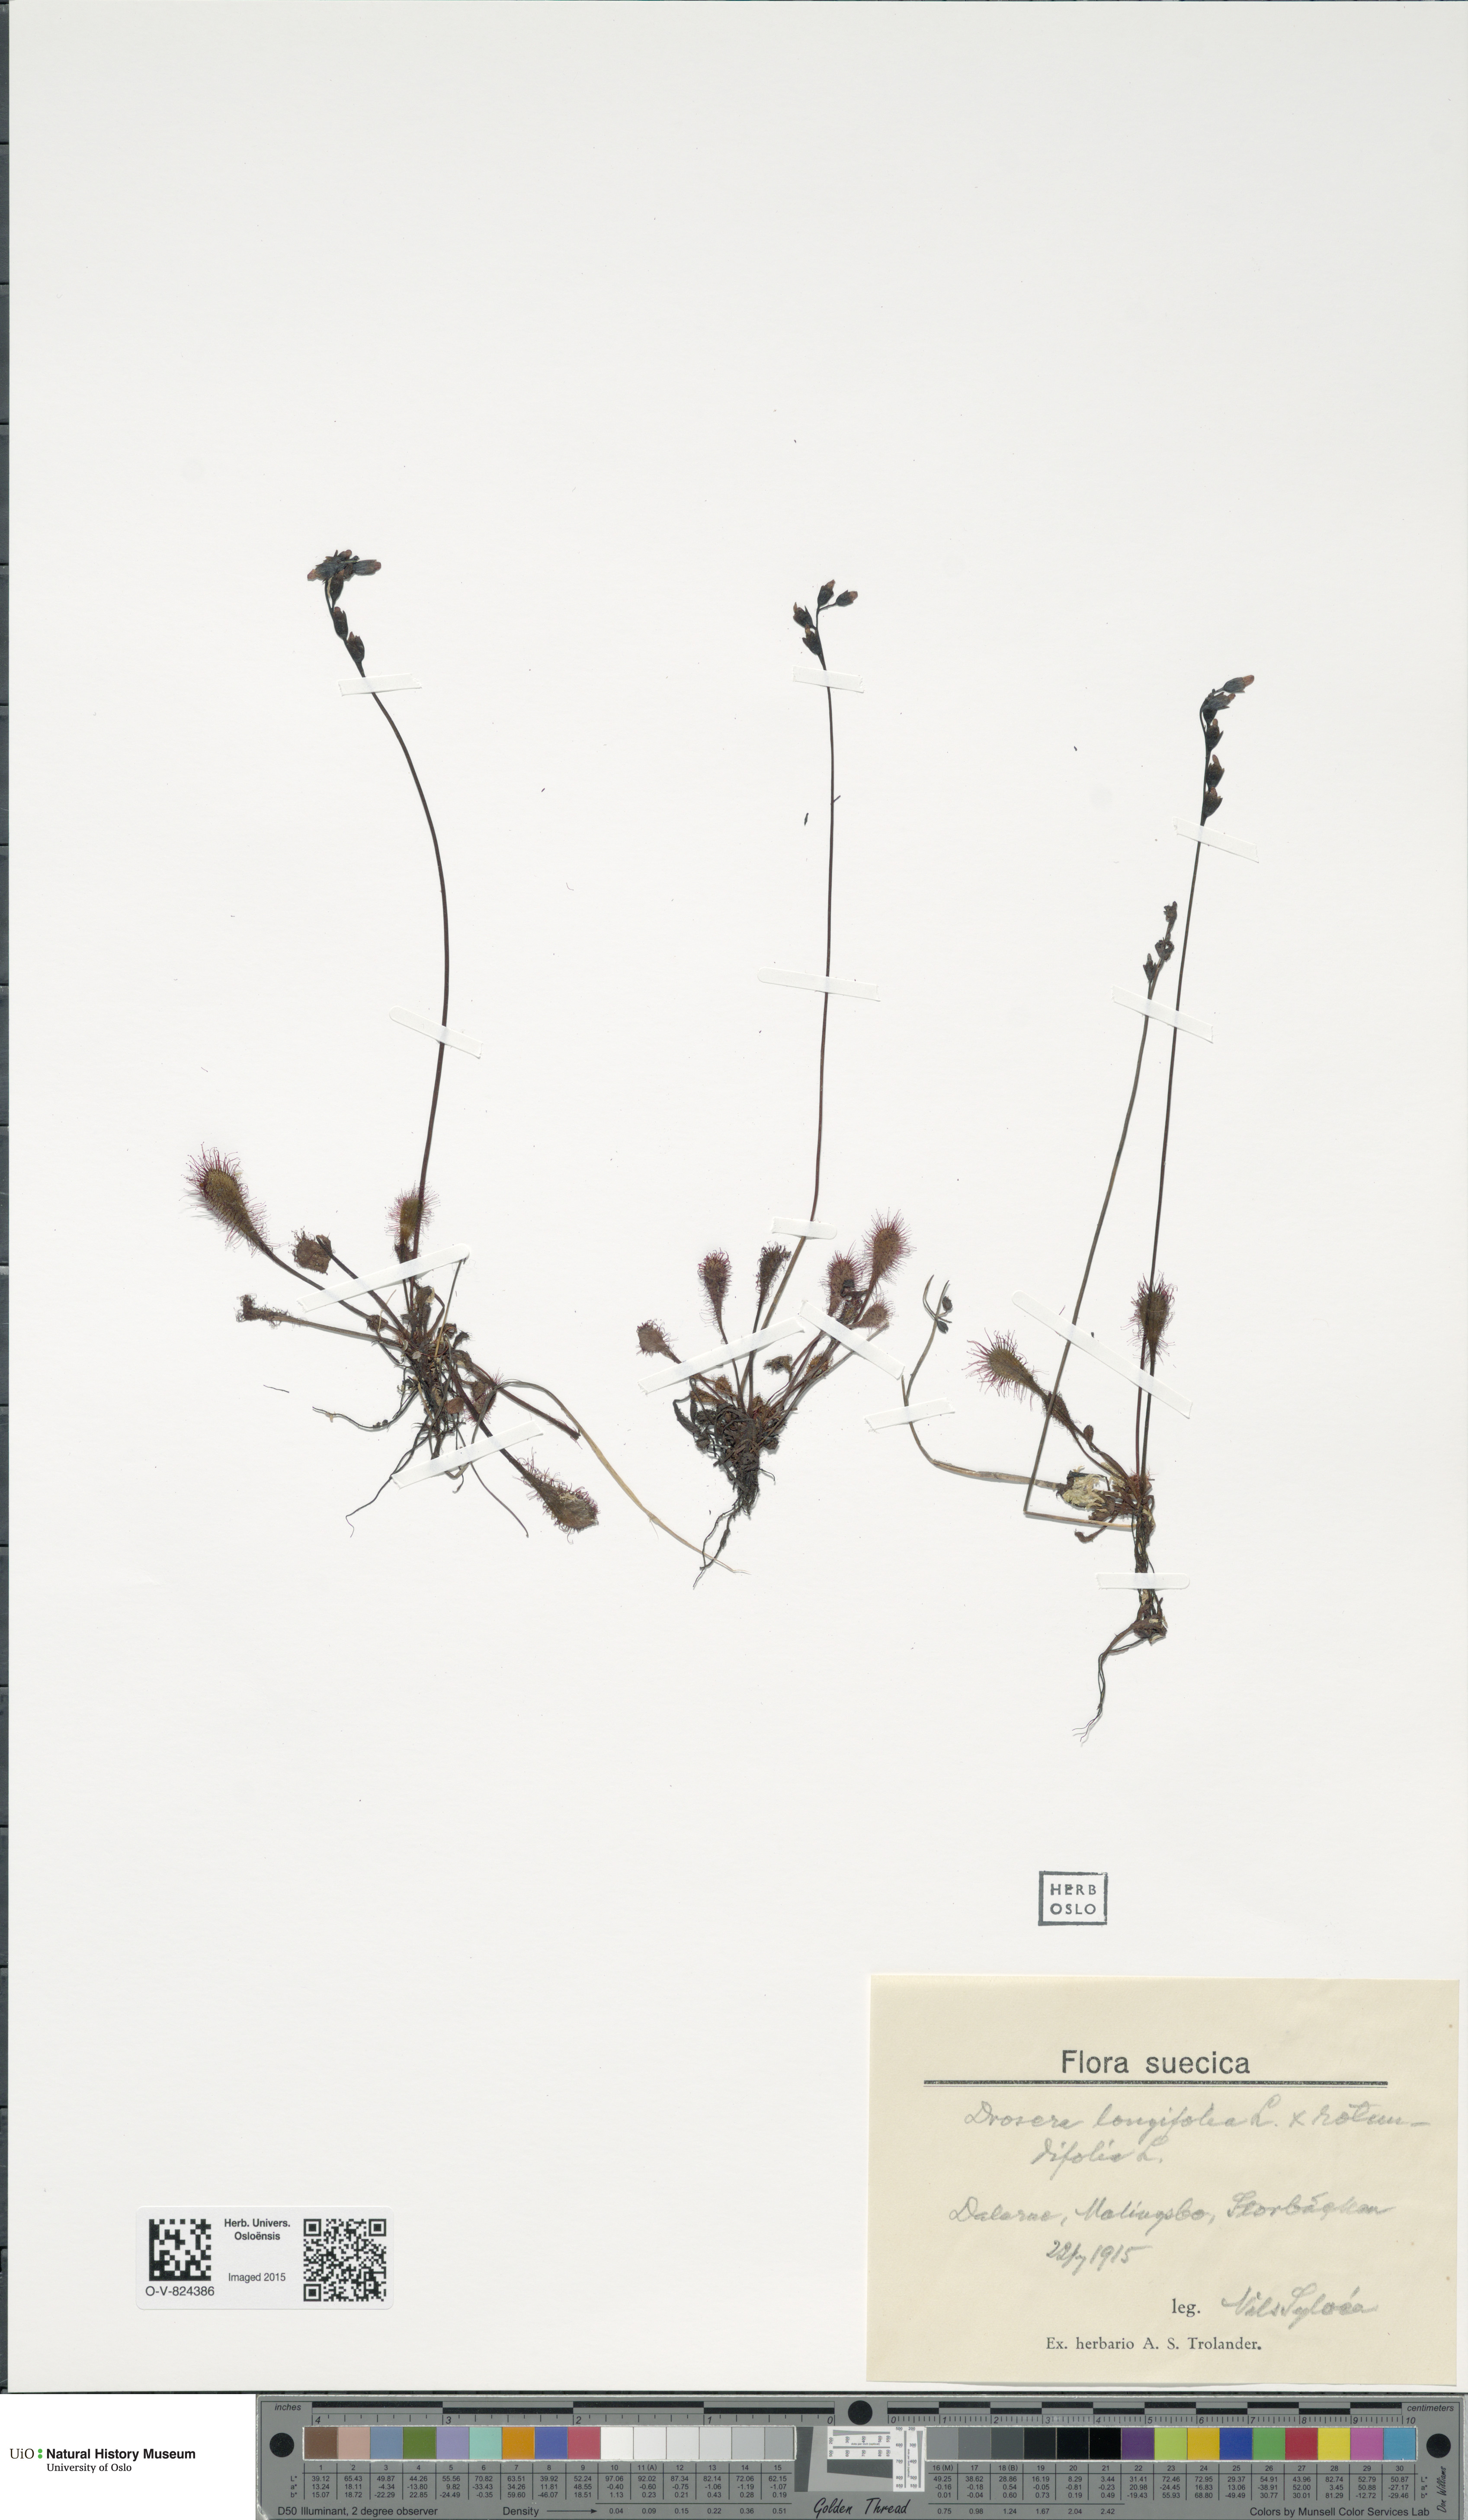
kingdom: Plantae
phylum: Tracheophyta
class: Magnoliopsida
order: Caryophyllales
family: Droseraceae
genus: Drosera
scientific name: Drosera
